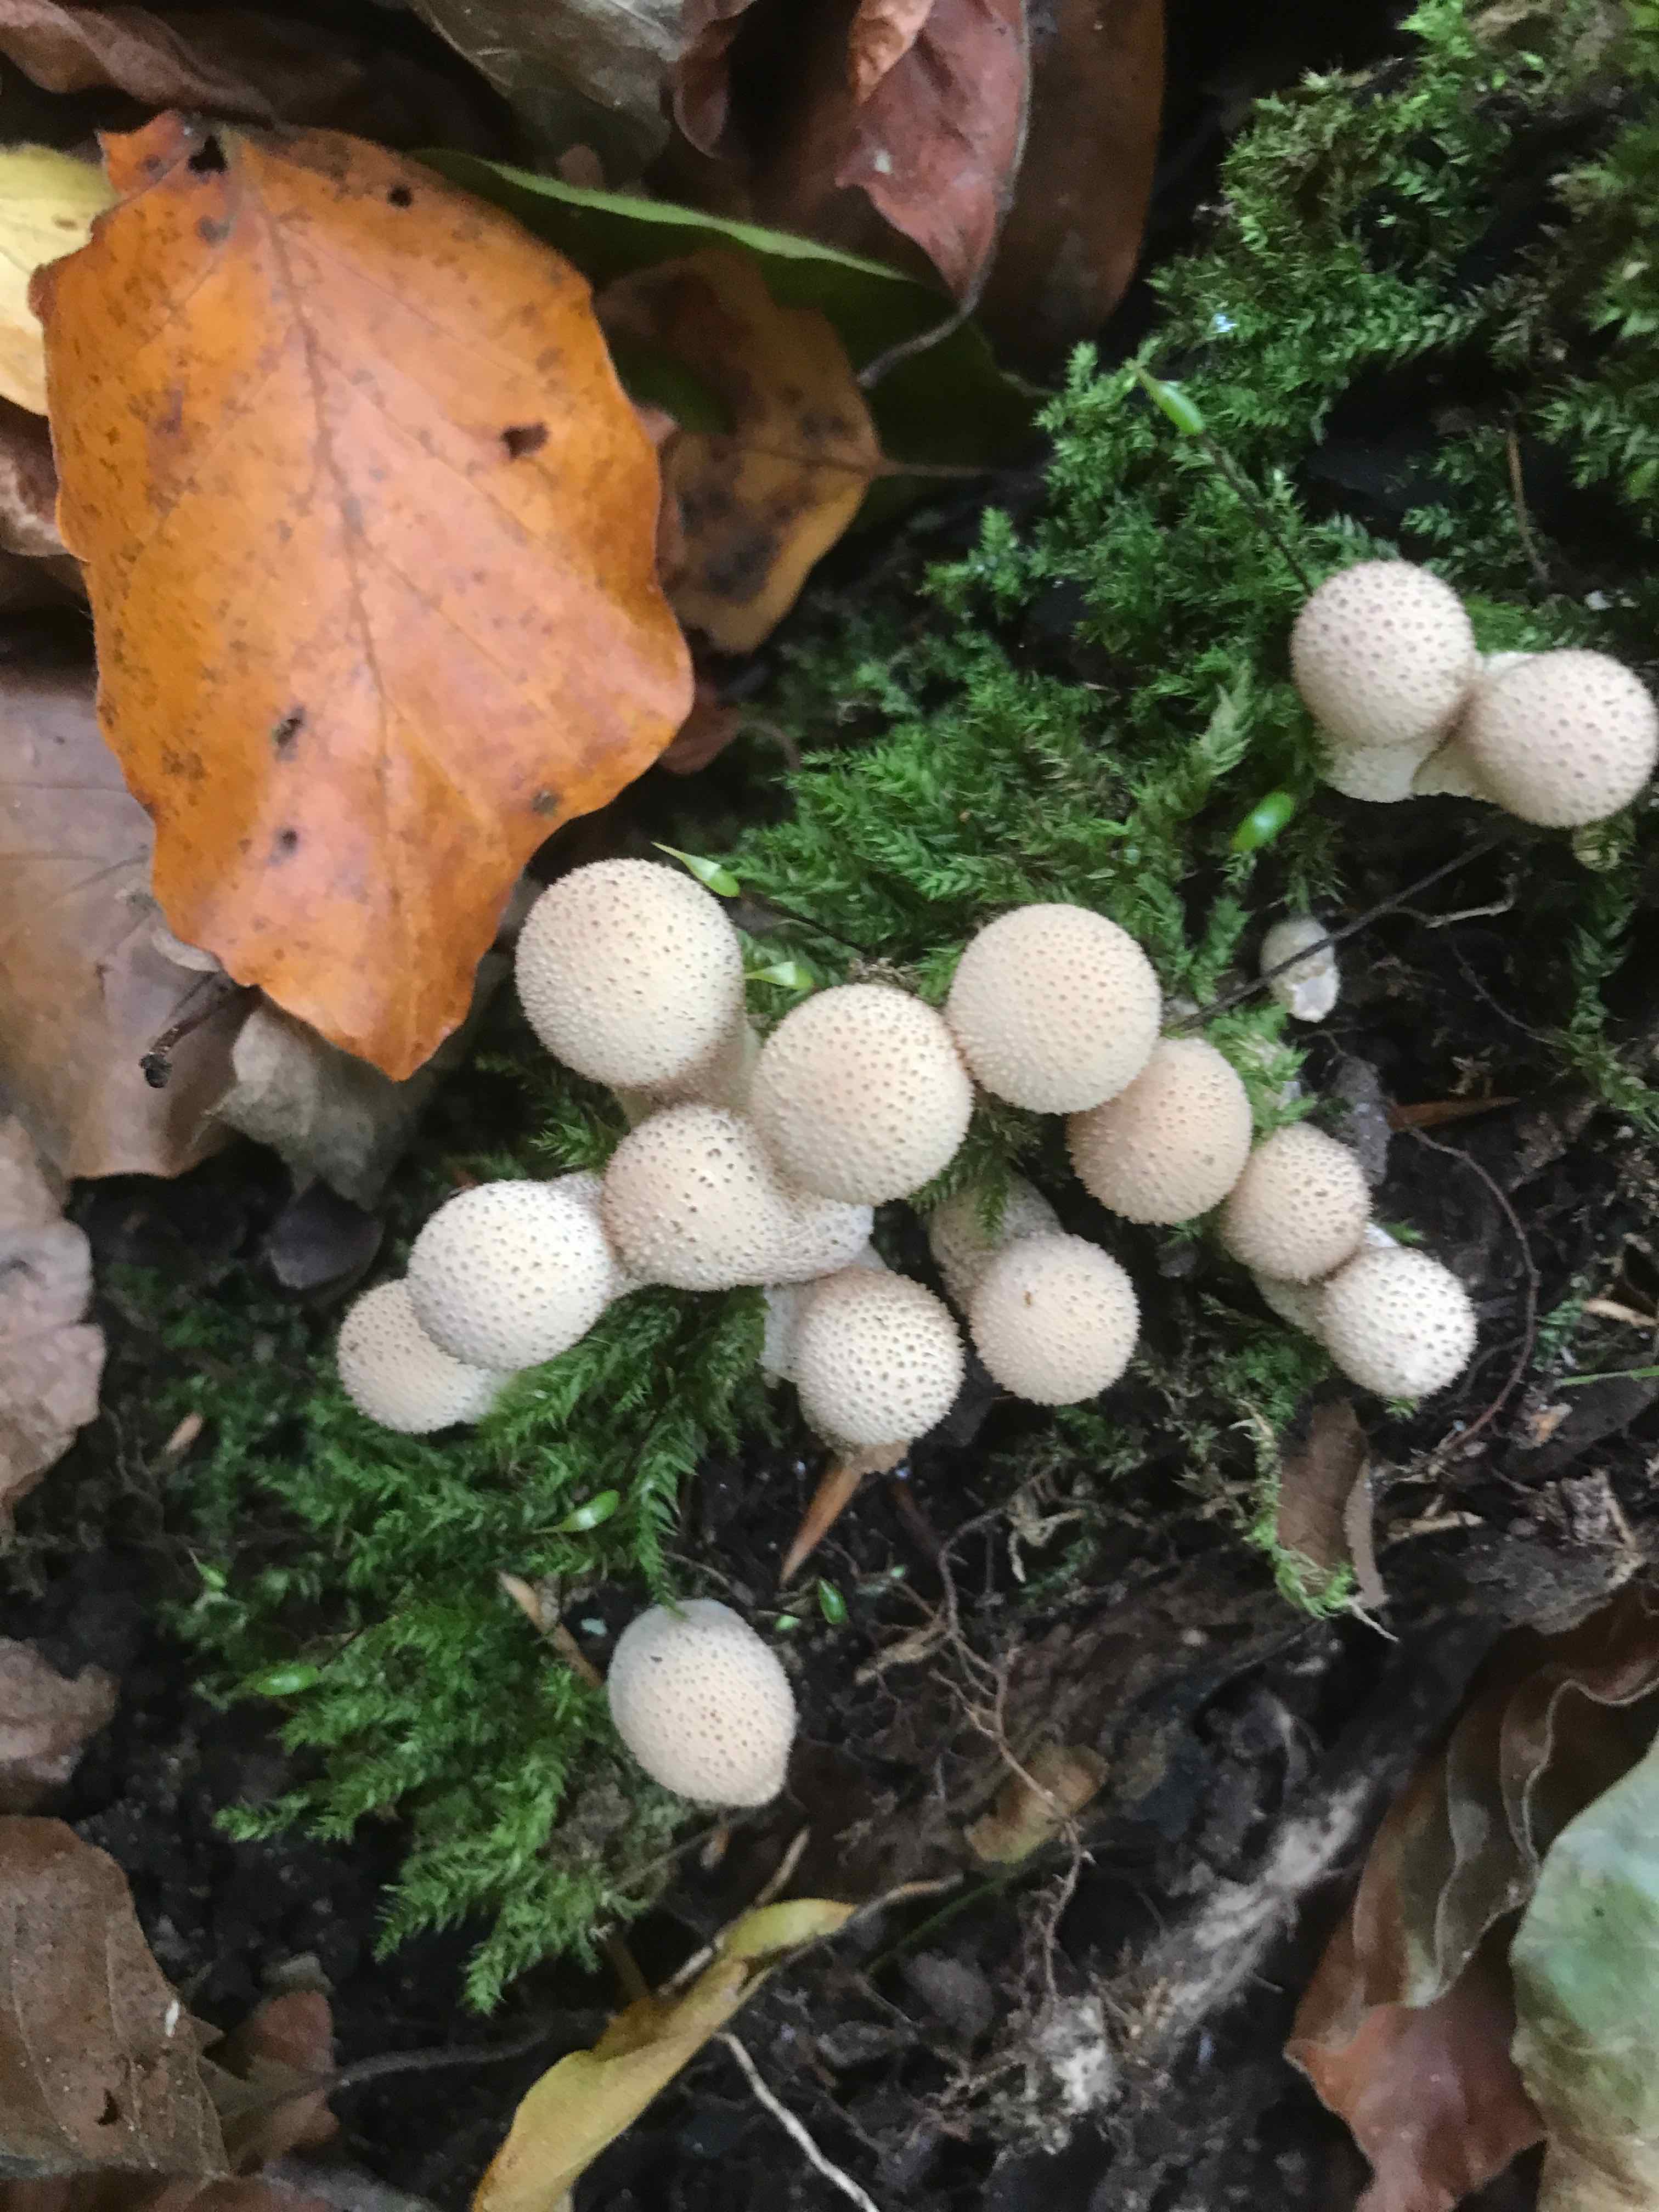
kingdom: Fungi
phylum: Basidiomycota
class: Agaricomycetes
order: Agaricales
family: Lycoperdaceae
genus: Apioperdon
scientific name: Apioperdon pyriforme
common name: pære-støvbold
